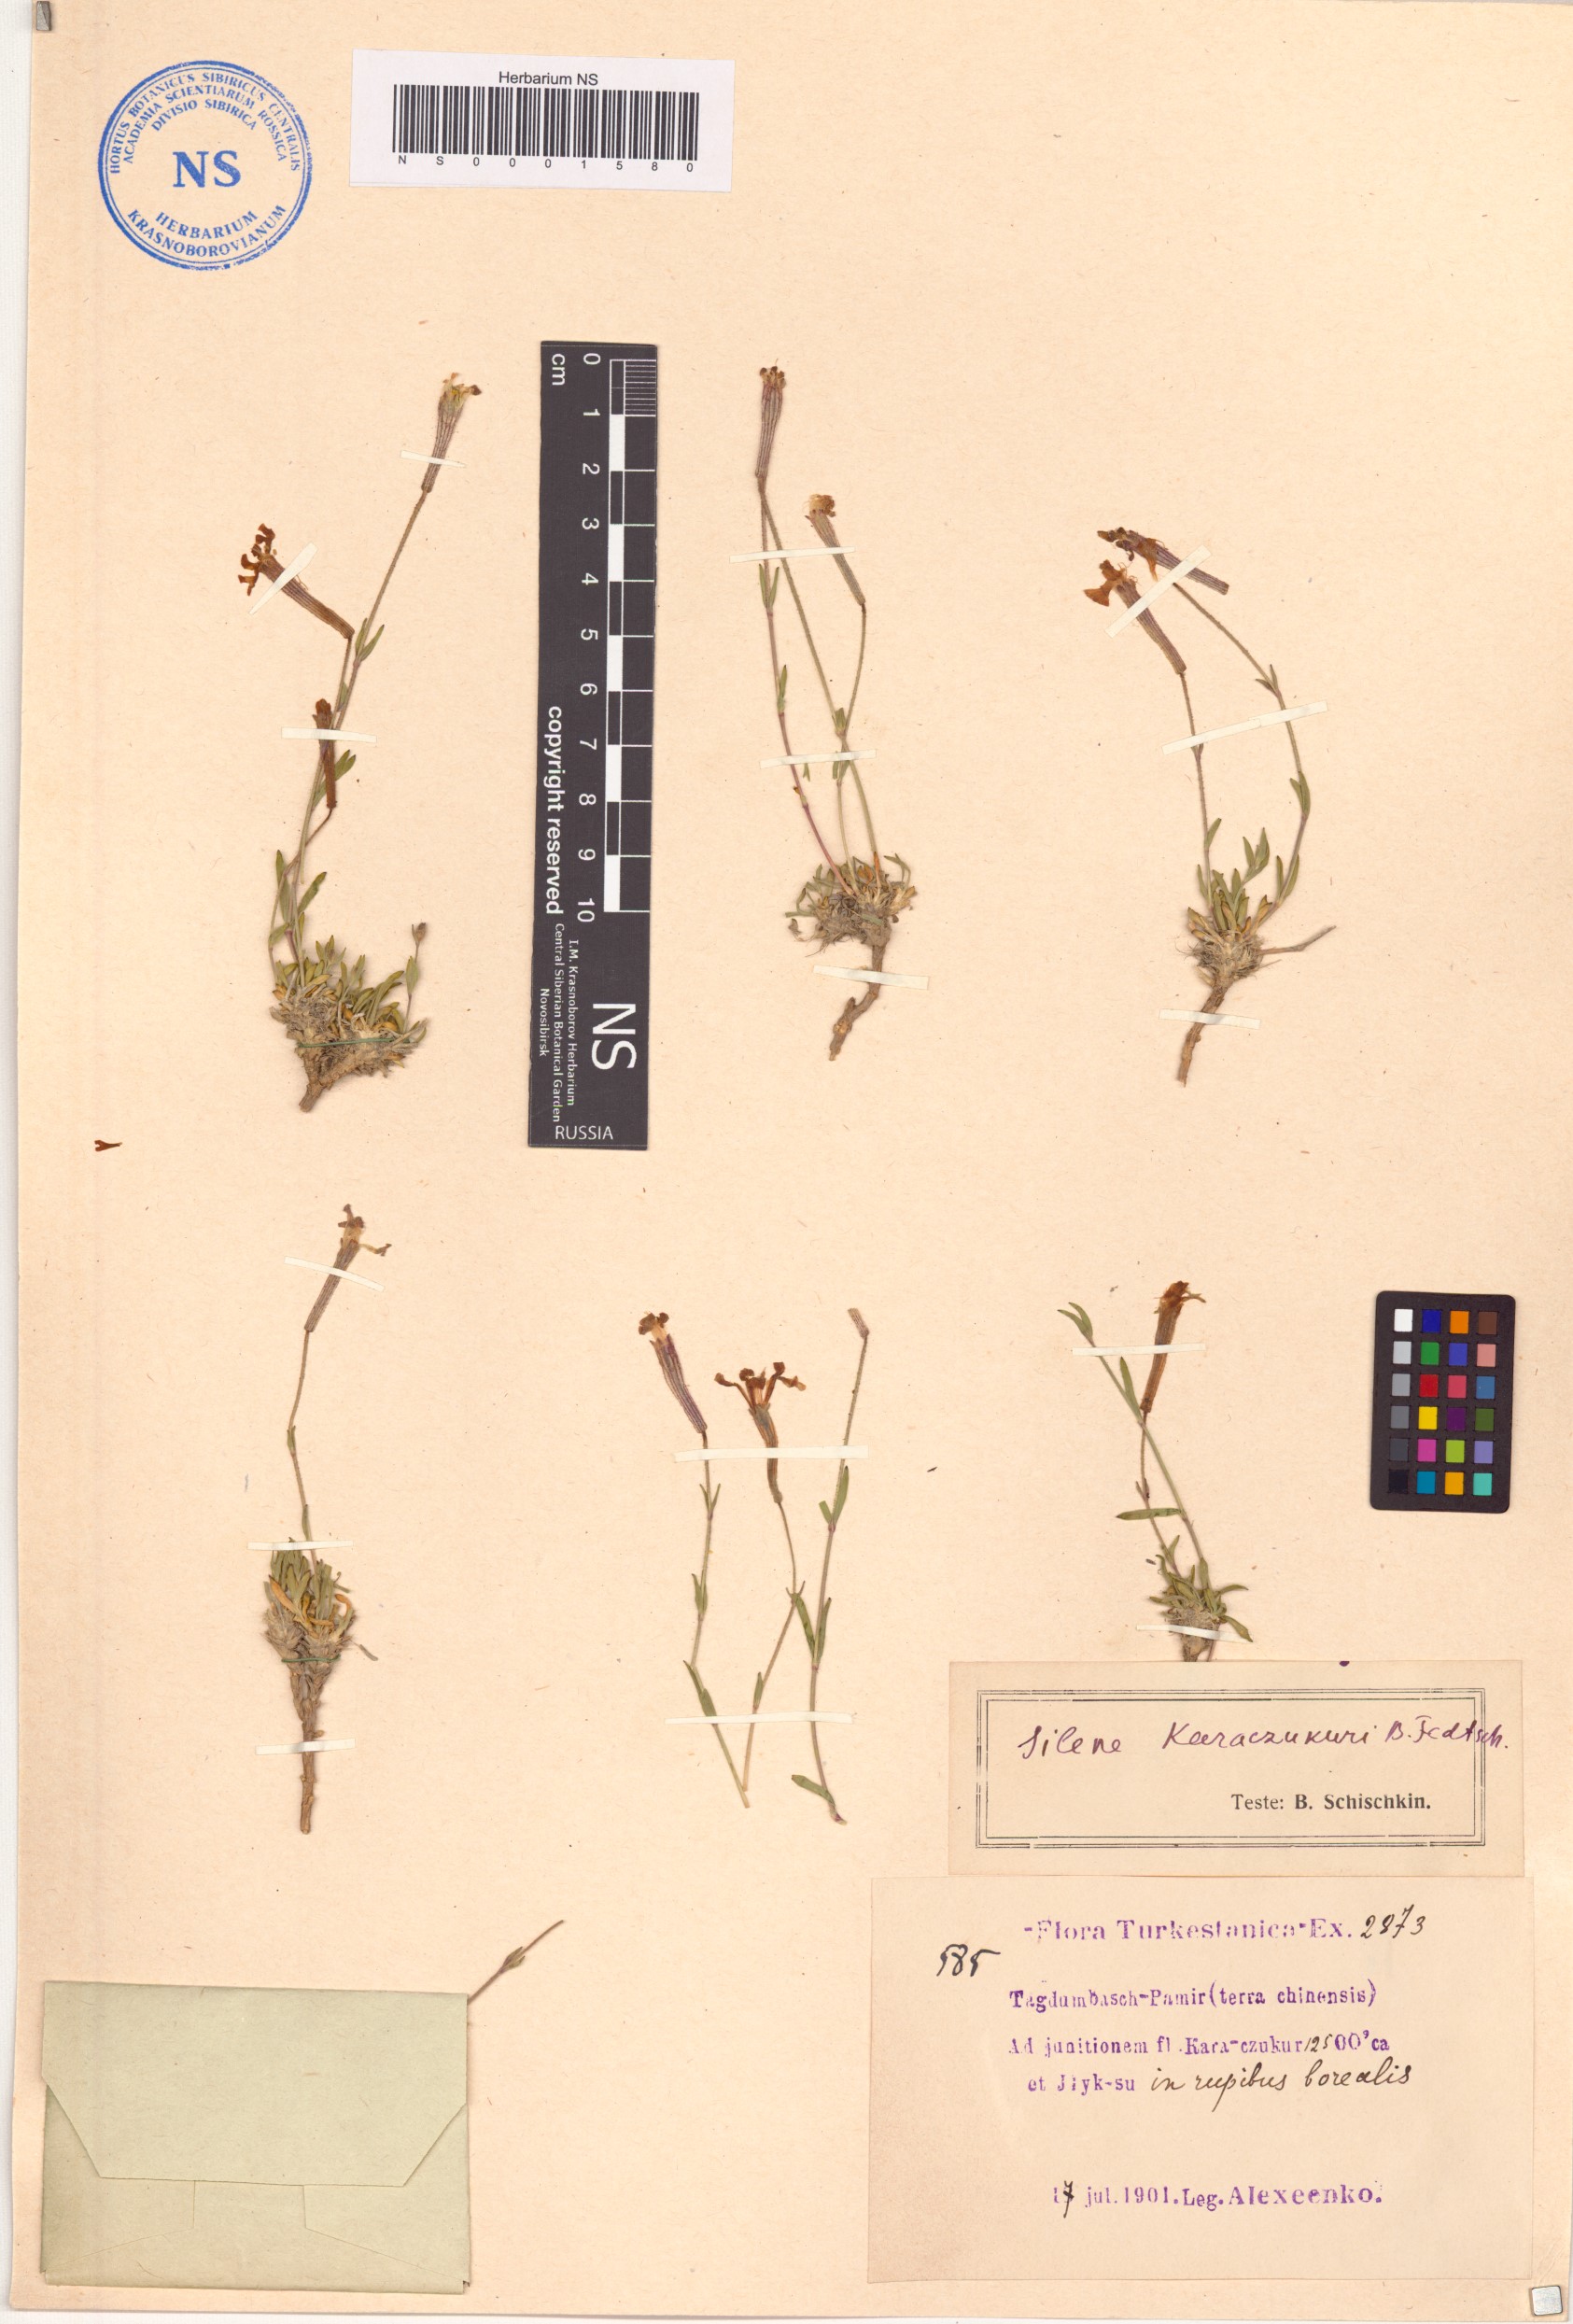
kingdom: Plantae
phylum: Tracheophyta
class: Magnoliopsida
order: Caryophyllales
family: Caryophyllaceae
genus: Silene
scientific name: Silene karaczukuri
